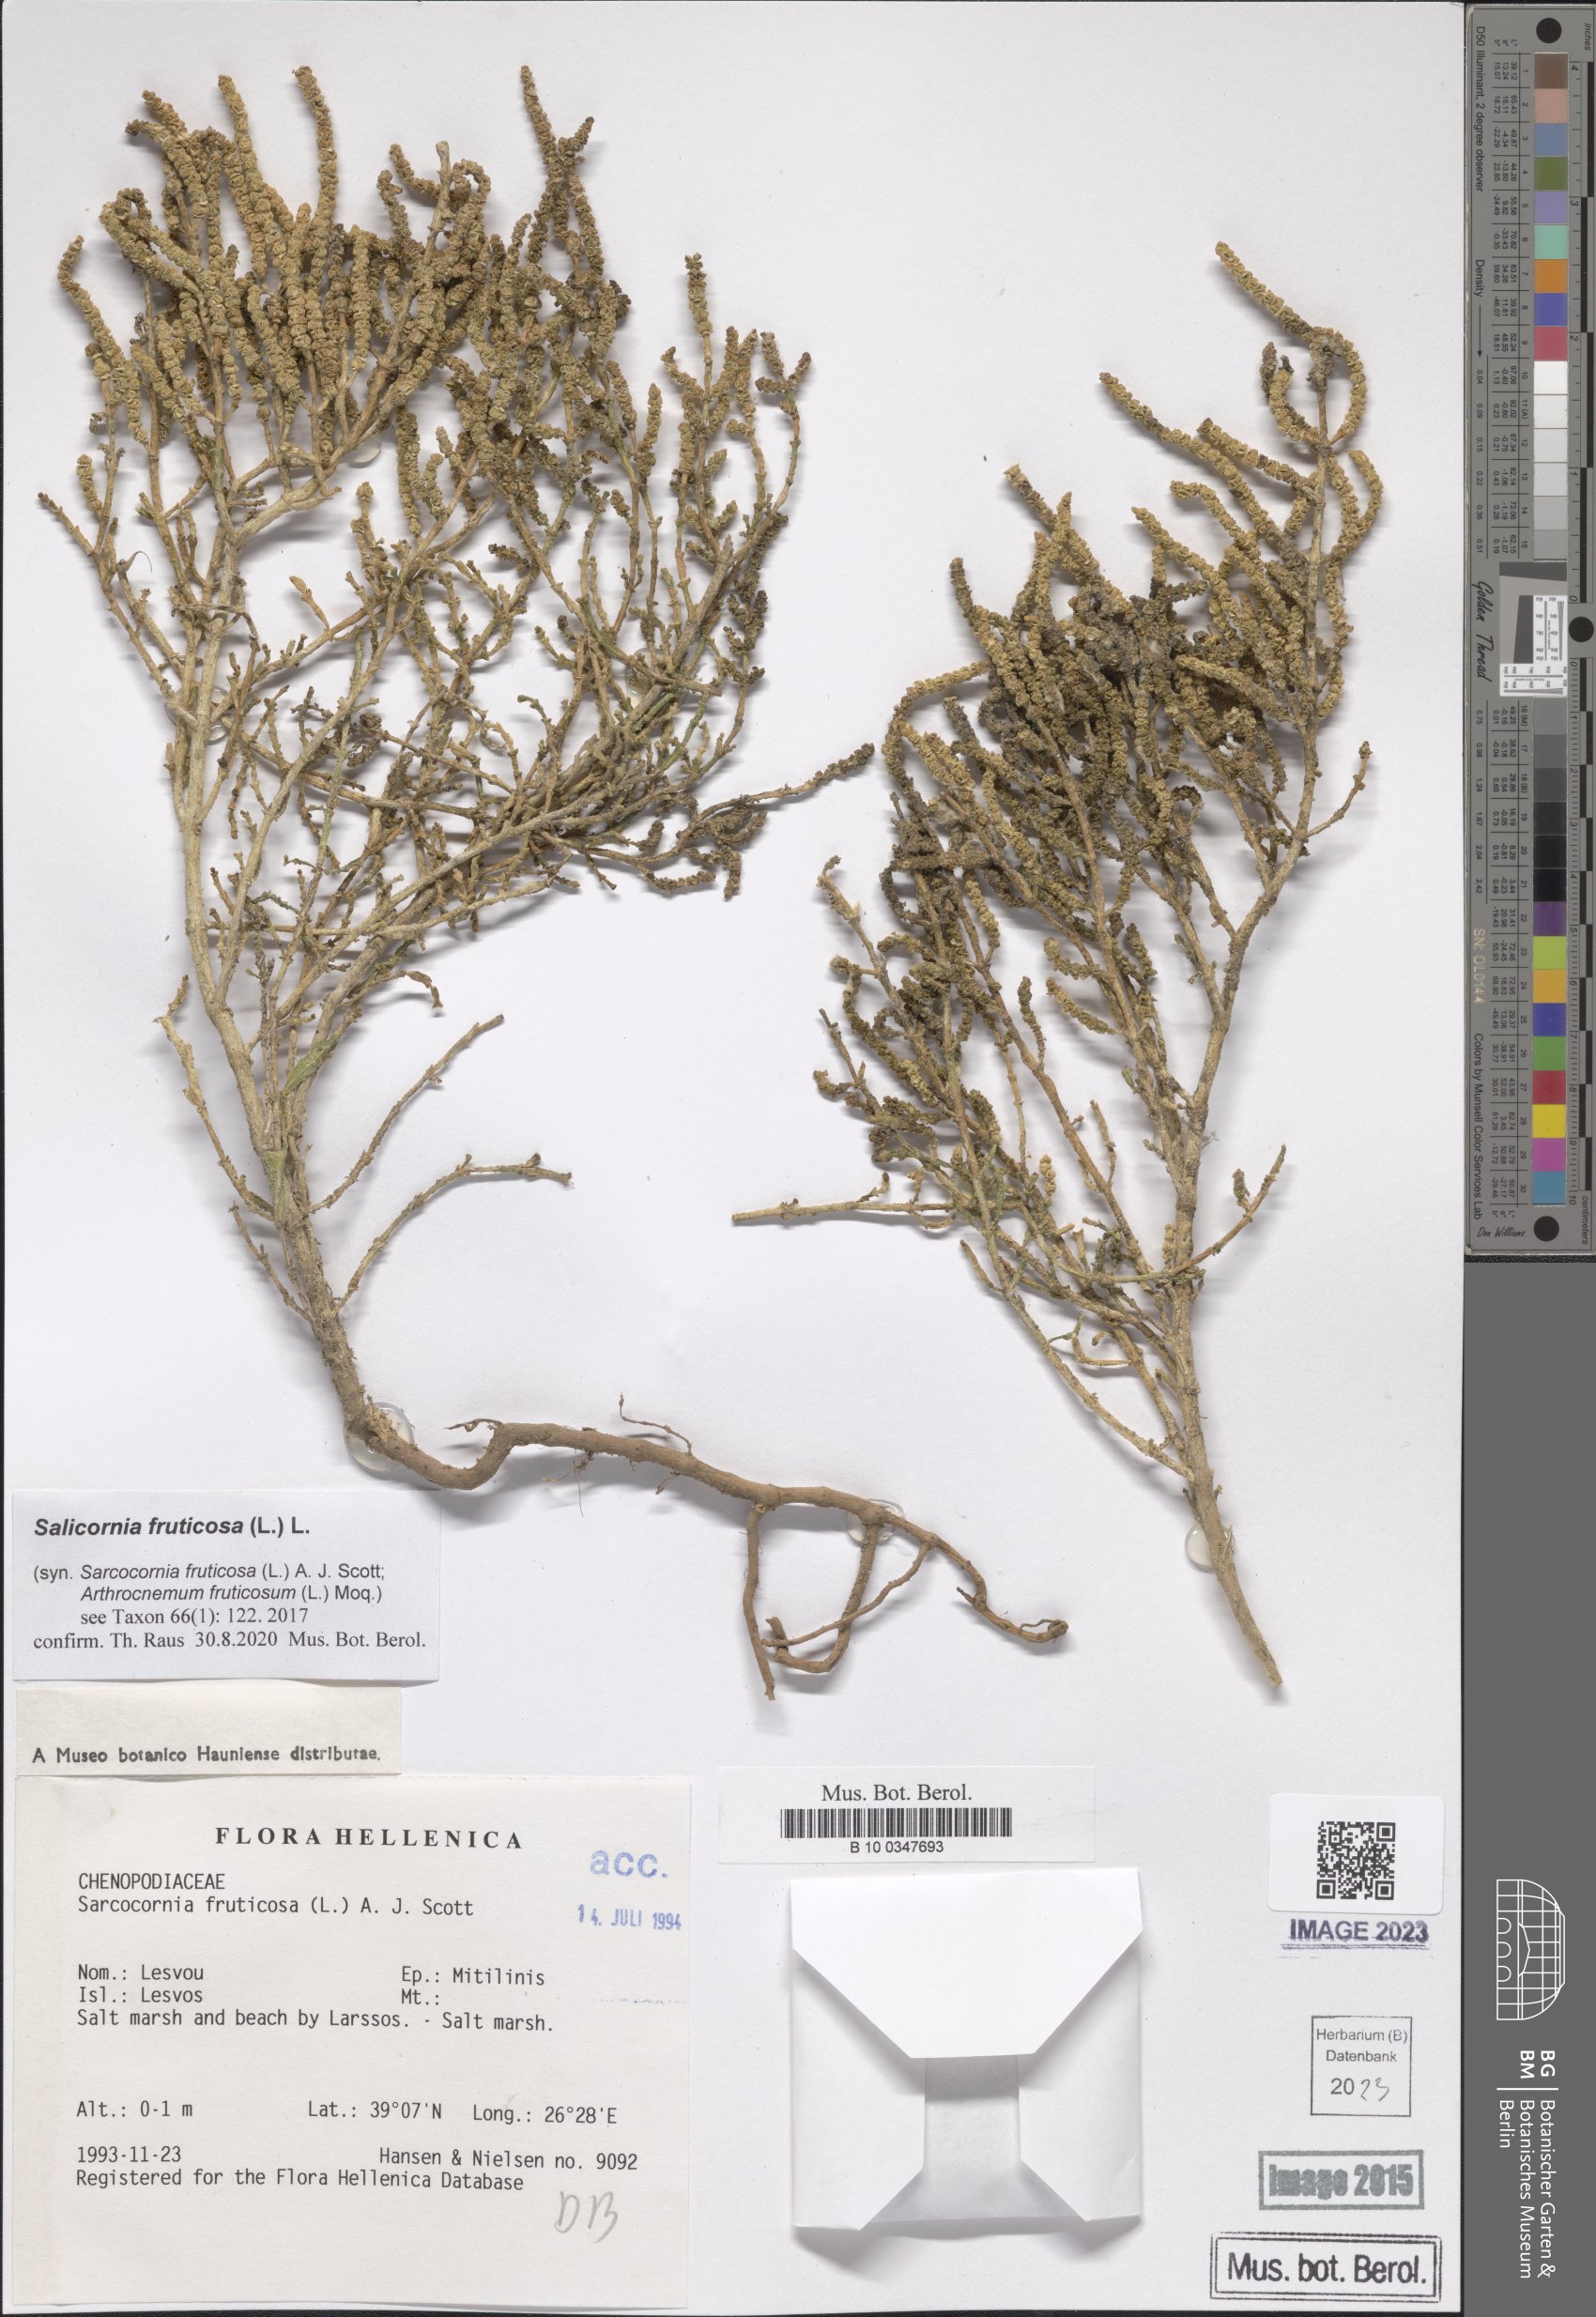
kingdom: Plantae
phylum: Tracheophyta
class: Magnoliopsida
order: Caryophyllales
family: Amaranthaceae
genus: Salicornia
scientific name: Salicornia fruticosa
